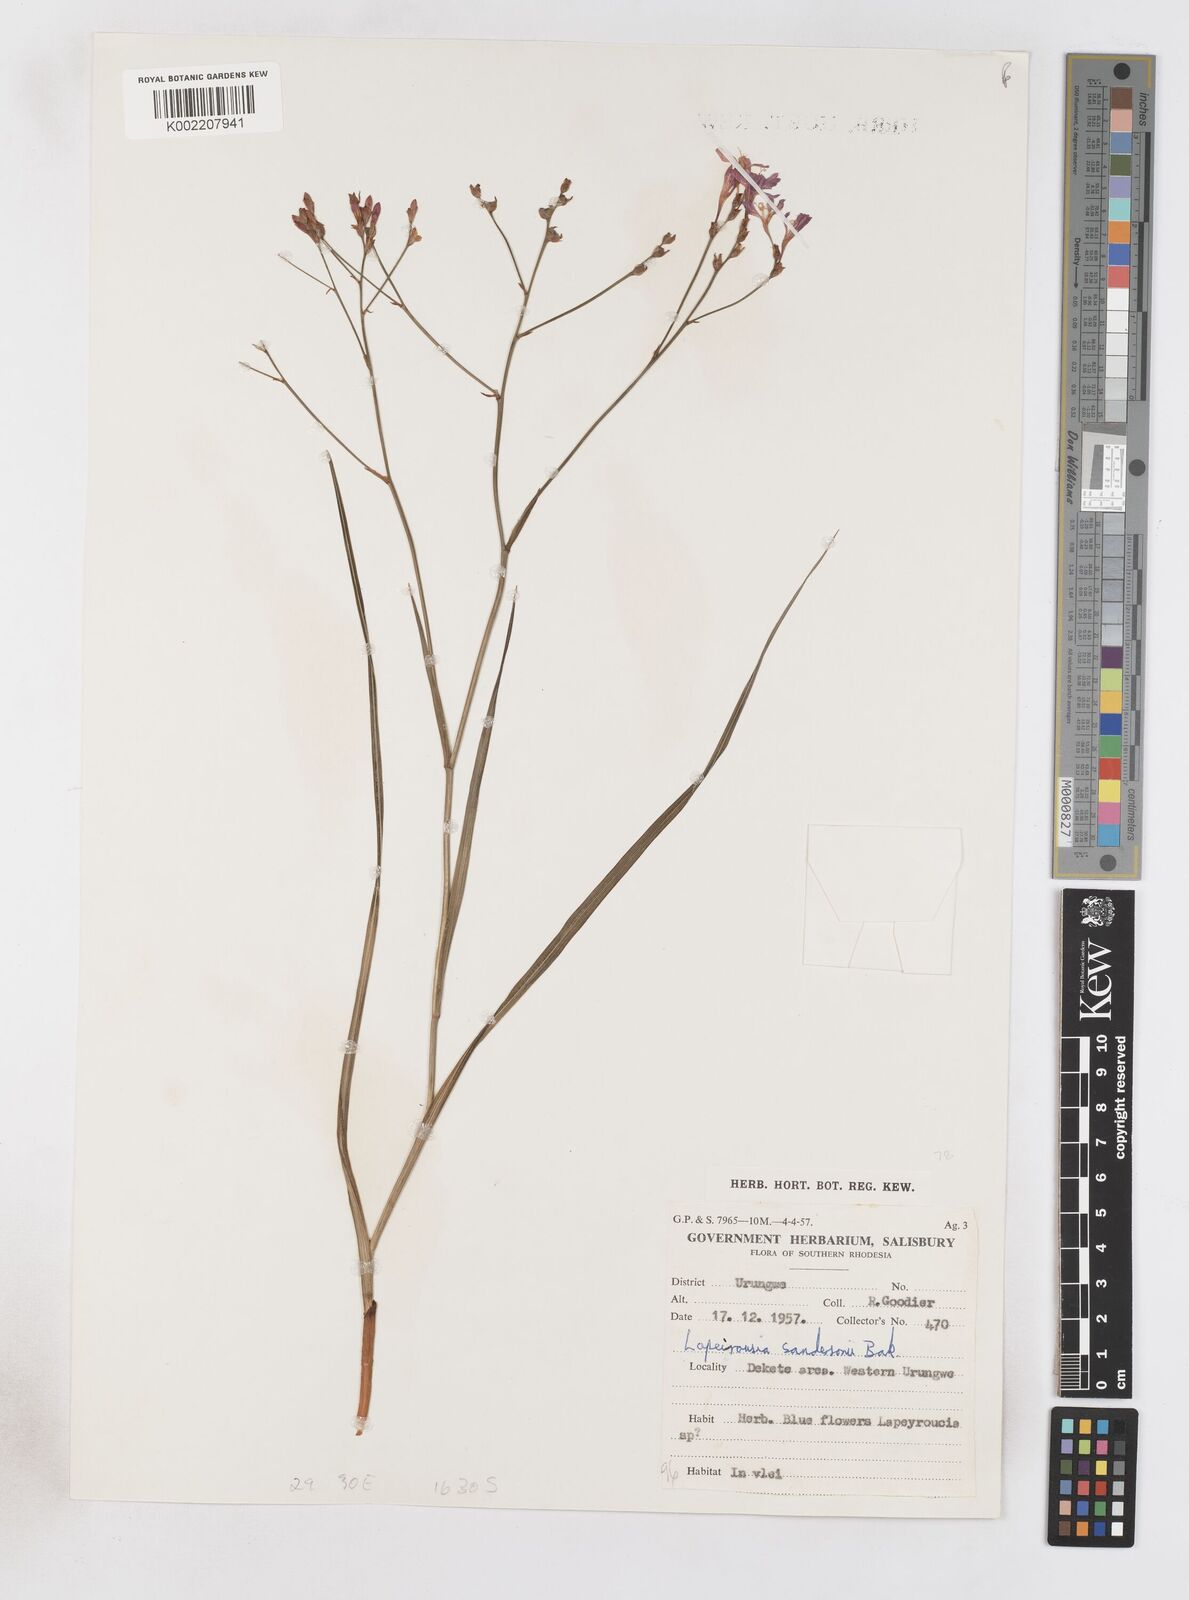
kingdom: Plantae
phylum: Tracheophyta
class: Liliopsida
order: Asparagales
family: Iridaceae
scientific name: Iridaceae
